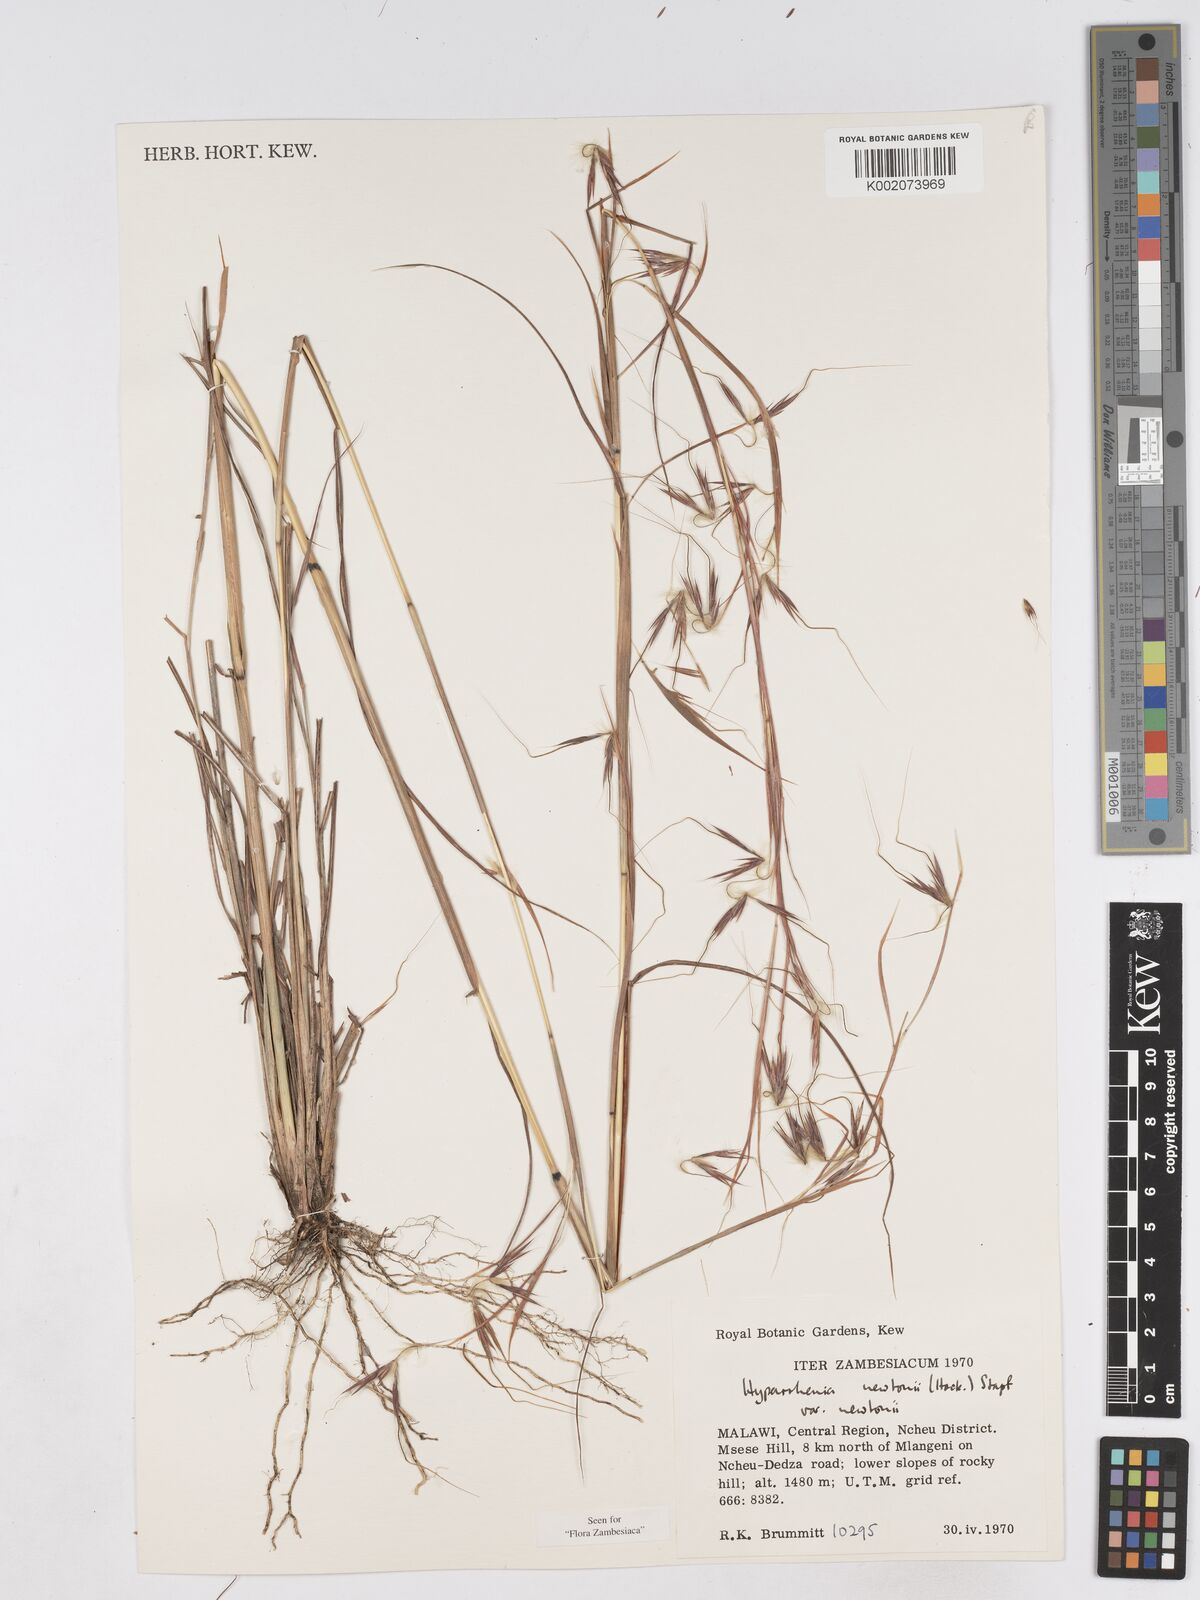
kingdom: Plantae
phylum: Tracheophyta
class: Liliopsida
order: Poales
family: Poaceae
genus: Hyparrhenia
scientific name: Hyparrhenia newtonii
